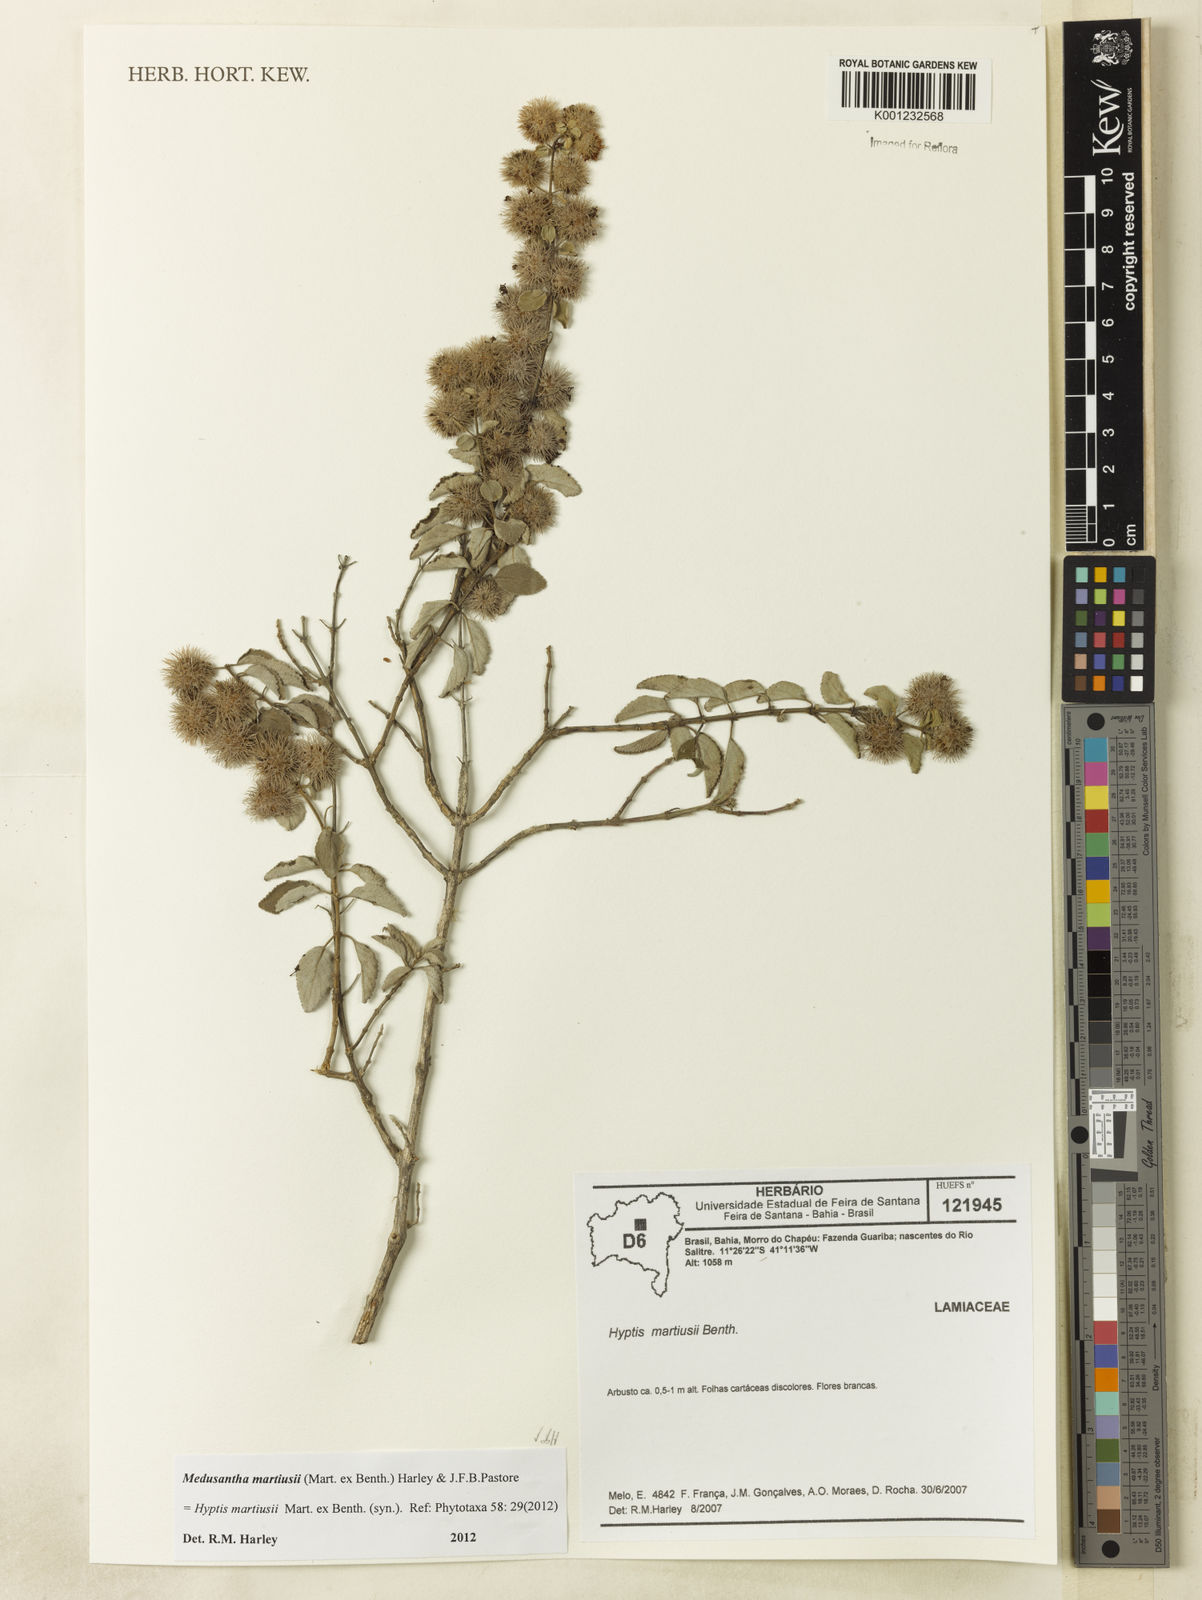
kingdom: Plantae
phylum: Tracheophyta
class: Magnoliopsida
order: Lamiales
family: Lamiaceae
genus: Medusantha
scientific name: Medusantha martiusii
